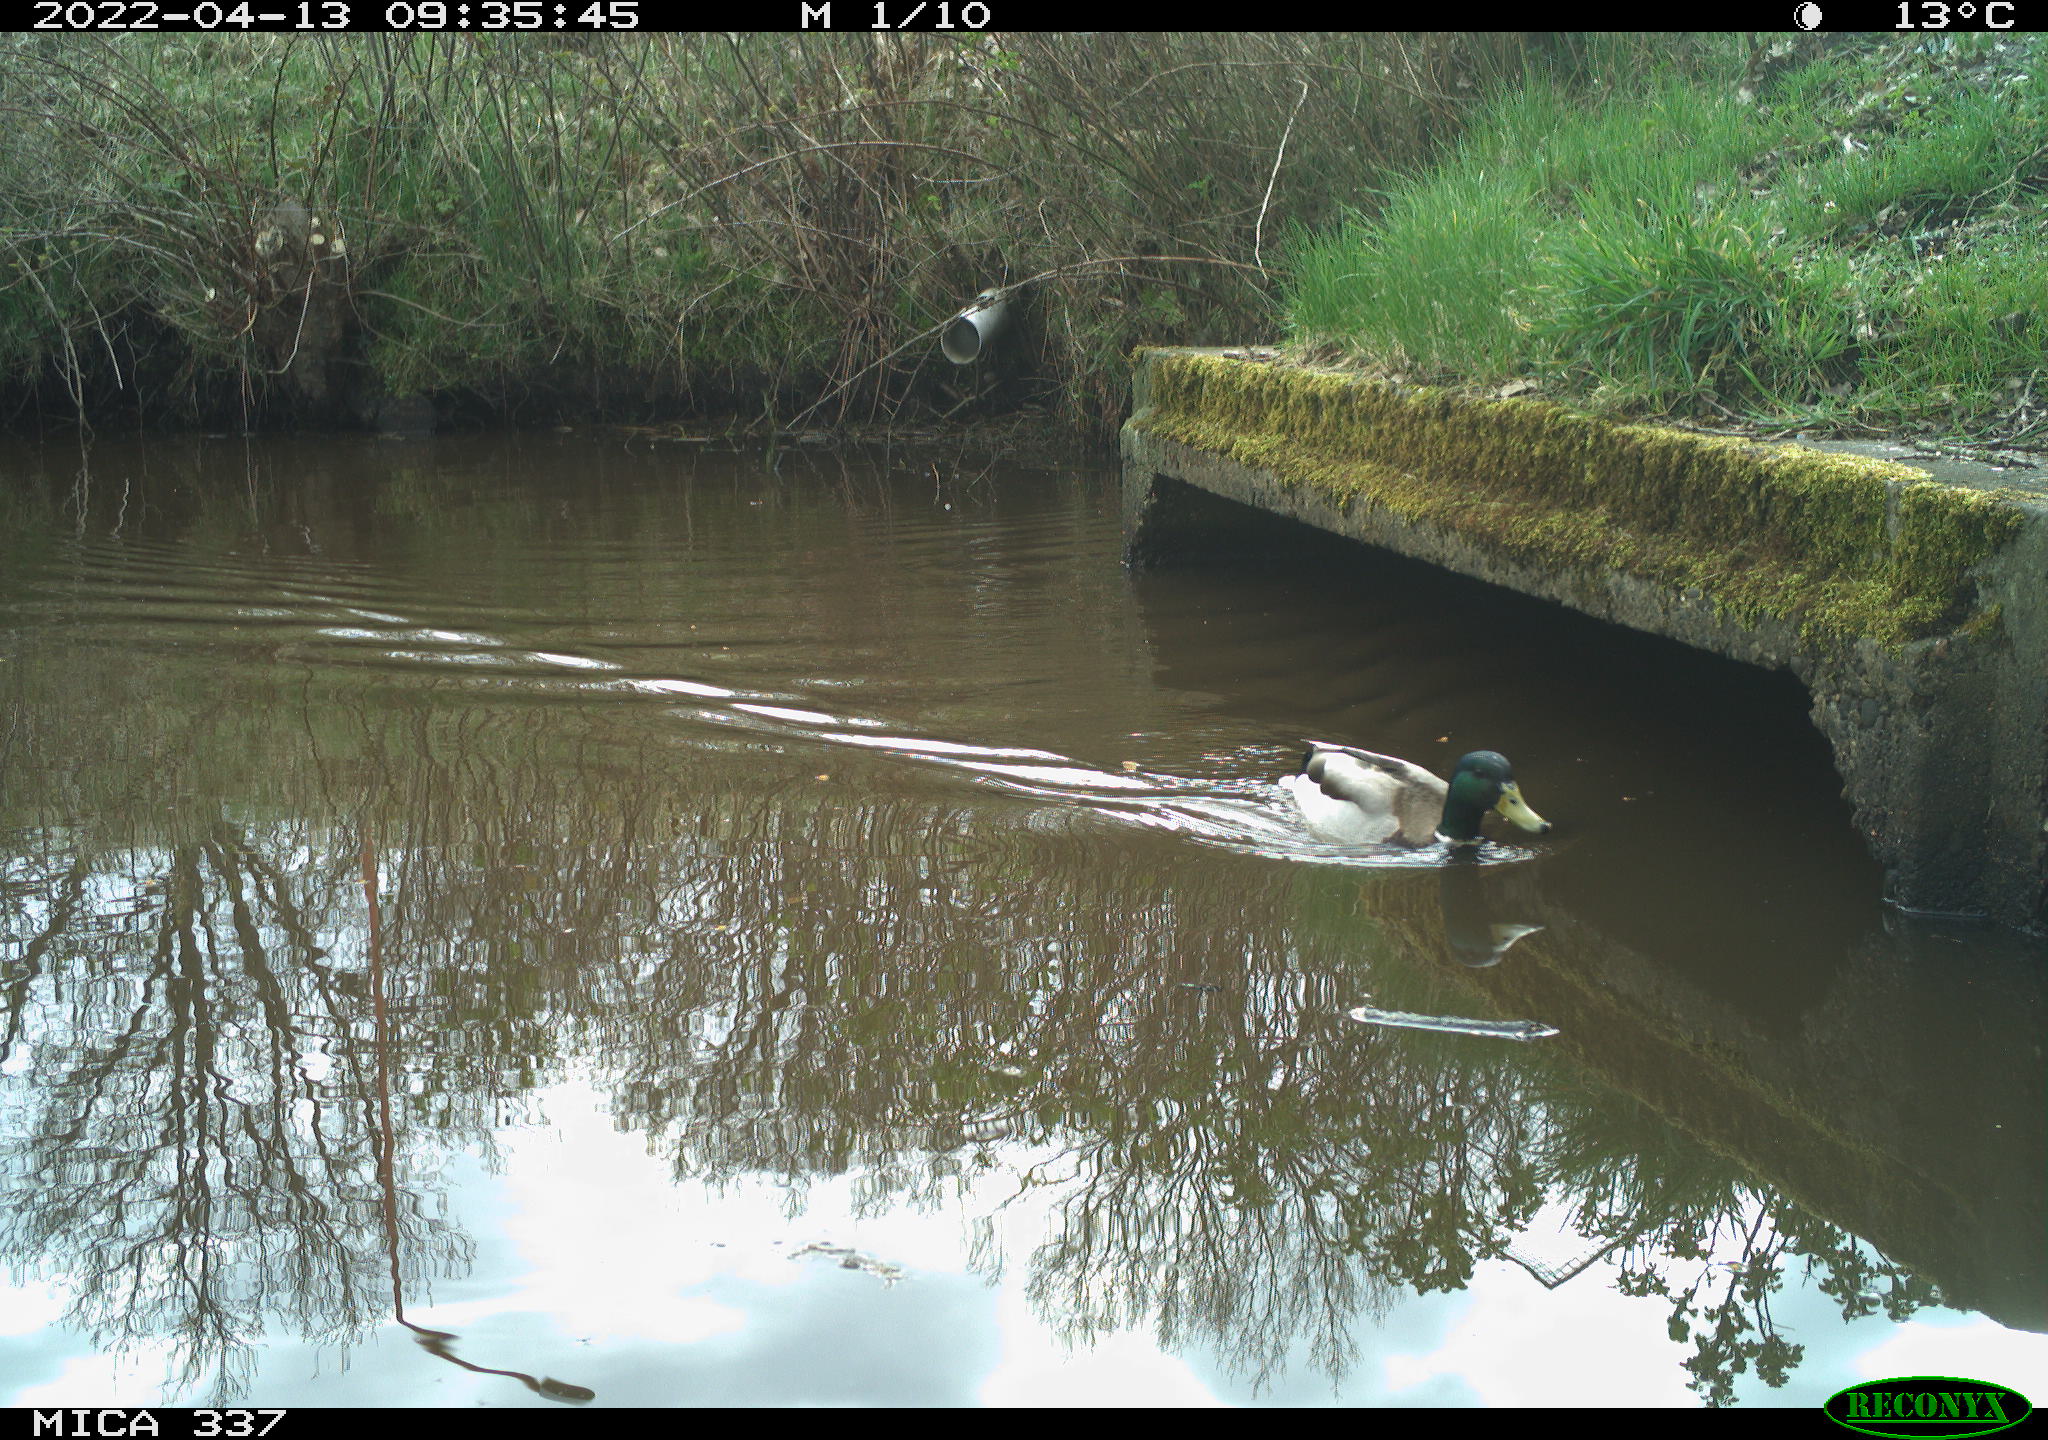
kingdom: Animalia
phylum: Chordata
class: Aves
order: Anseriformes
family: Anatidae
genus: Anas
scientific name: Anas platyrhynchos
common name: Mallard
